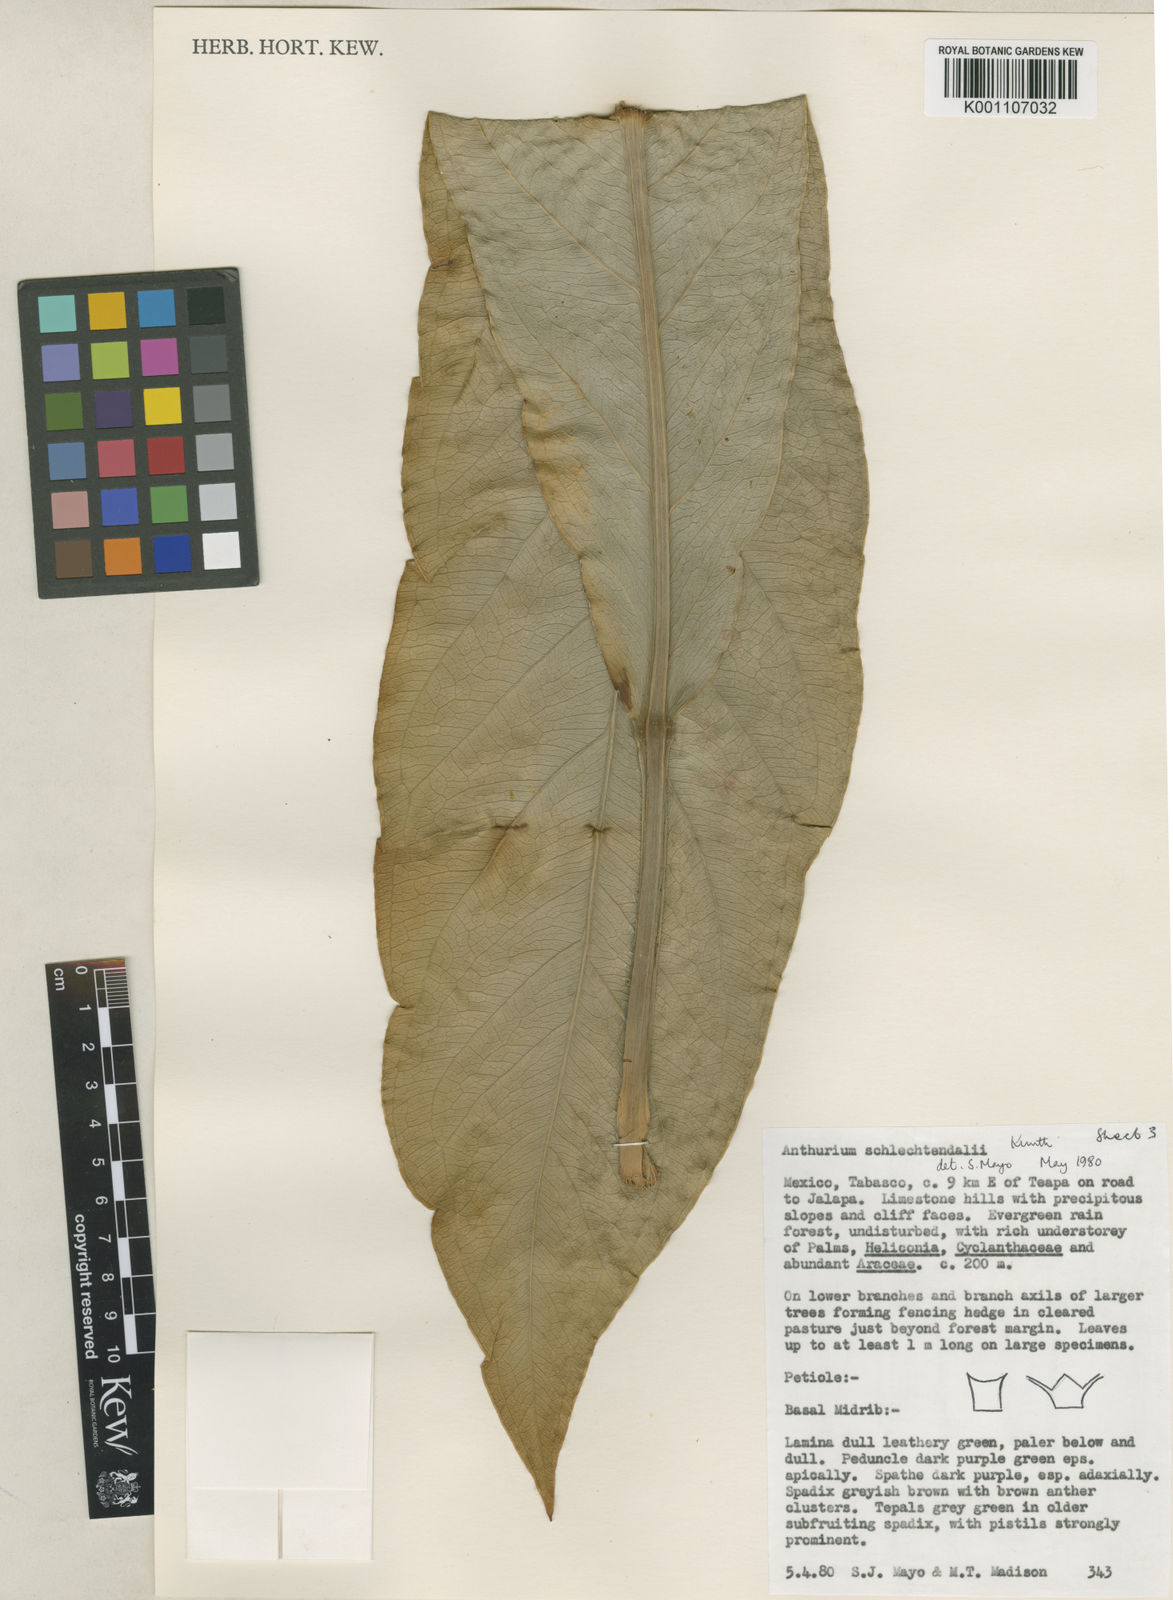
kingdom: Plantae
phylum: Tracheophyta
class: Liliopsida
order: Alismatales
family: Araceae
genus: Anthurium
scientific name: Anthurium schlechtendalii
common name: Laceleaf
